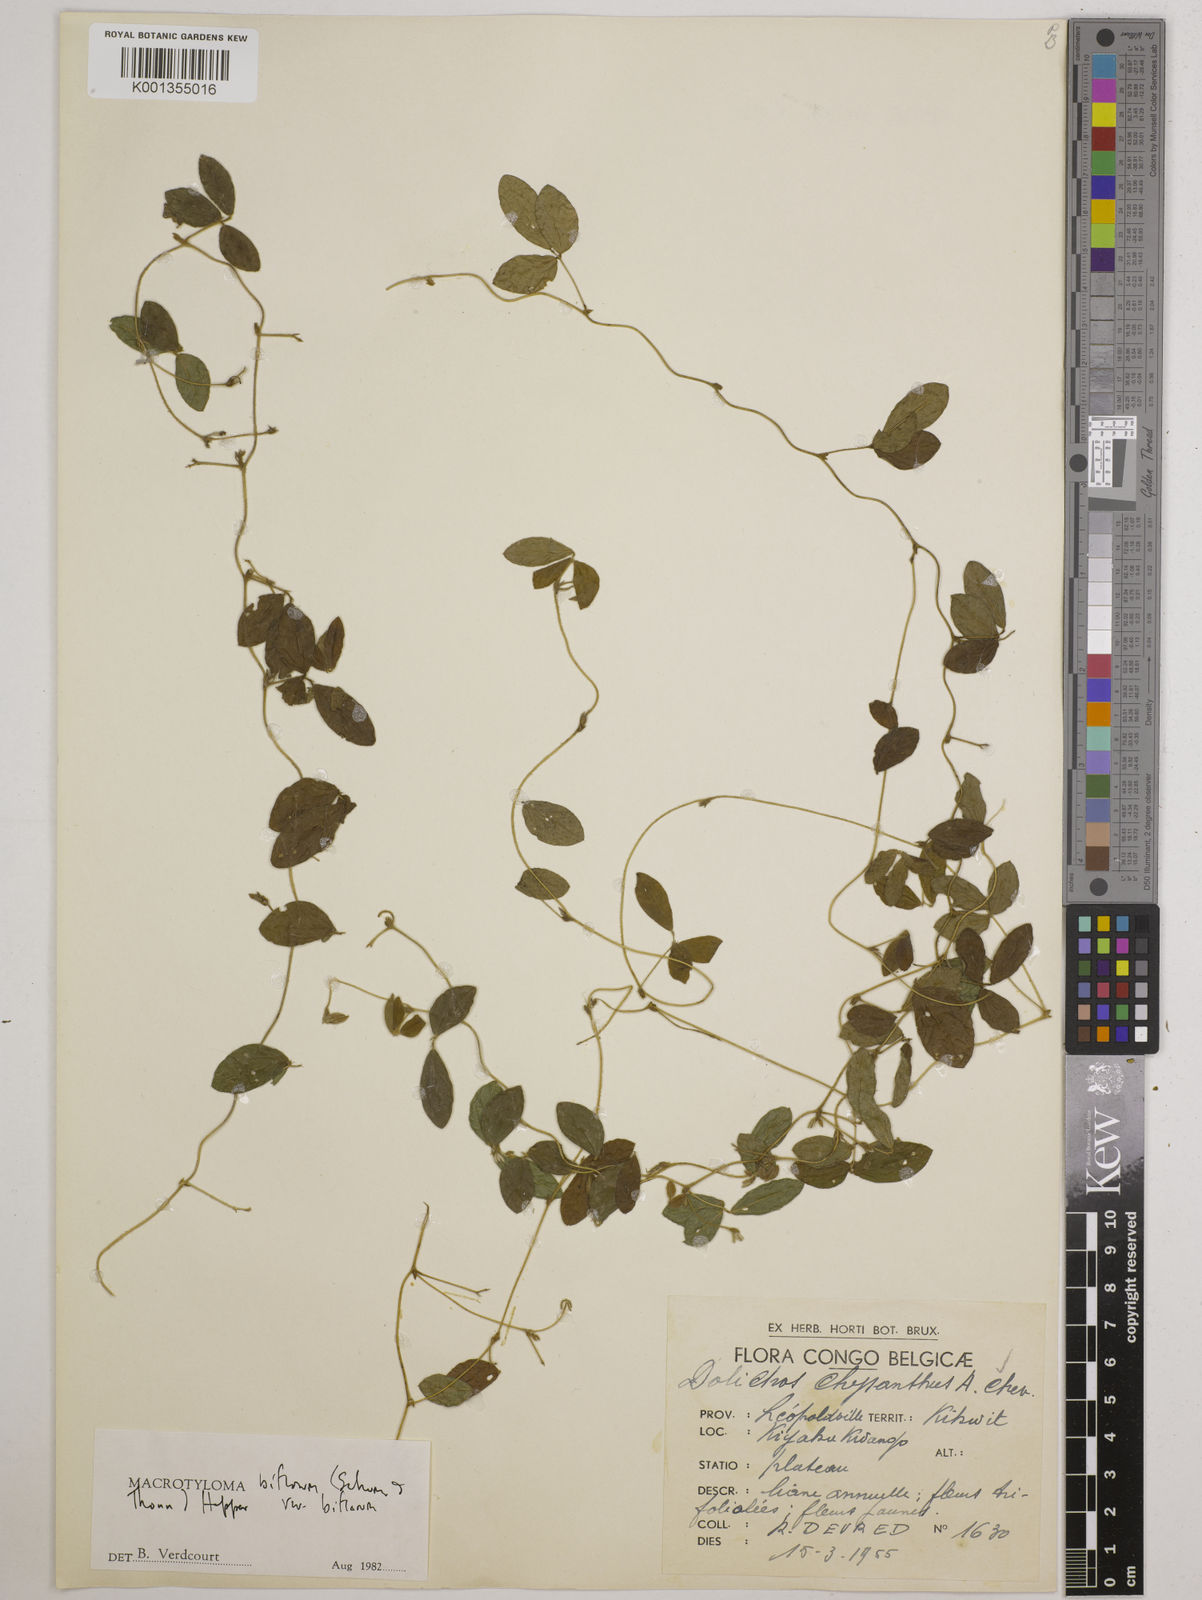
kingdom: Plantae
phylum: Tracheophyta
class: Magnoliopsida
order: Fabales
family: Fabaceae
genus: Macrotyloma
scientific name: Macrotyloma biflorum
